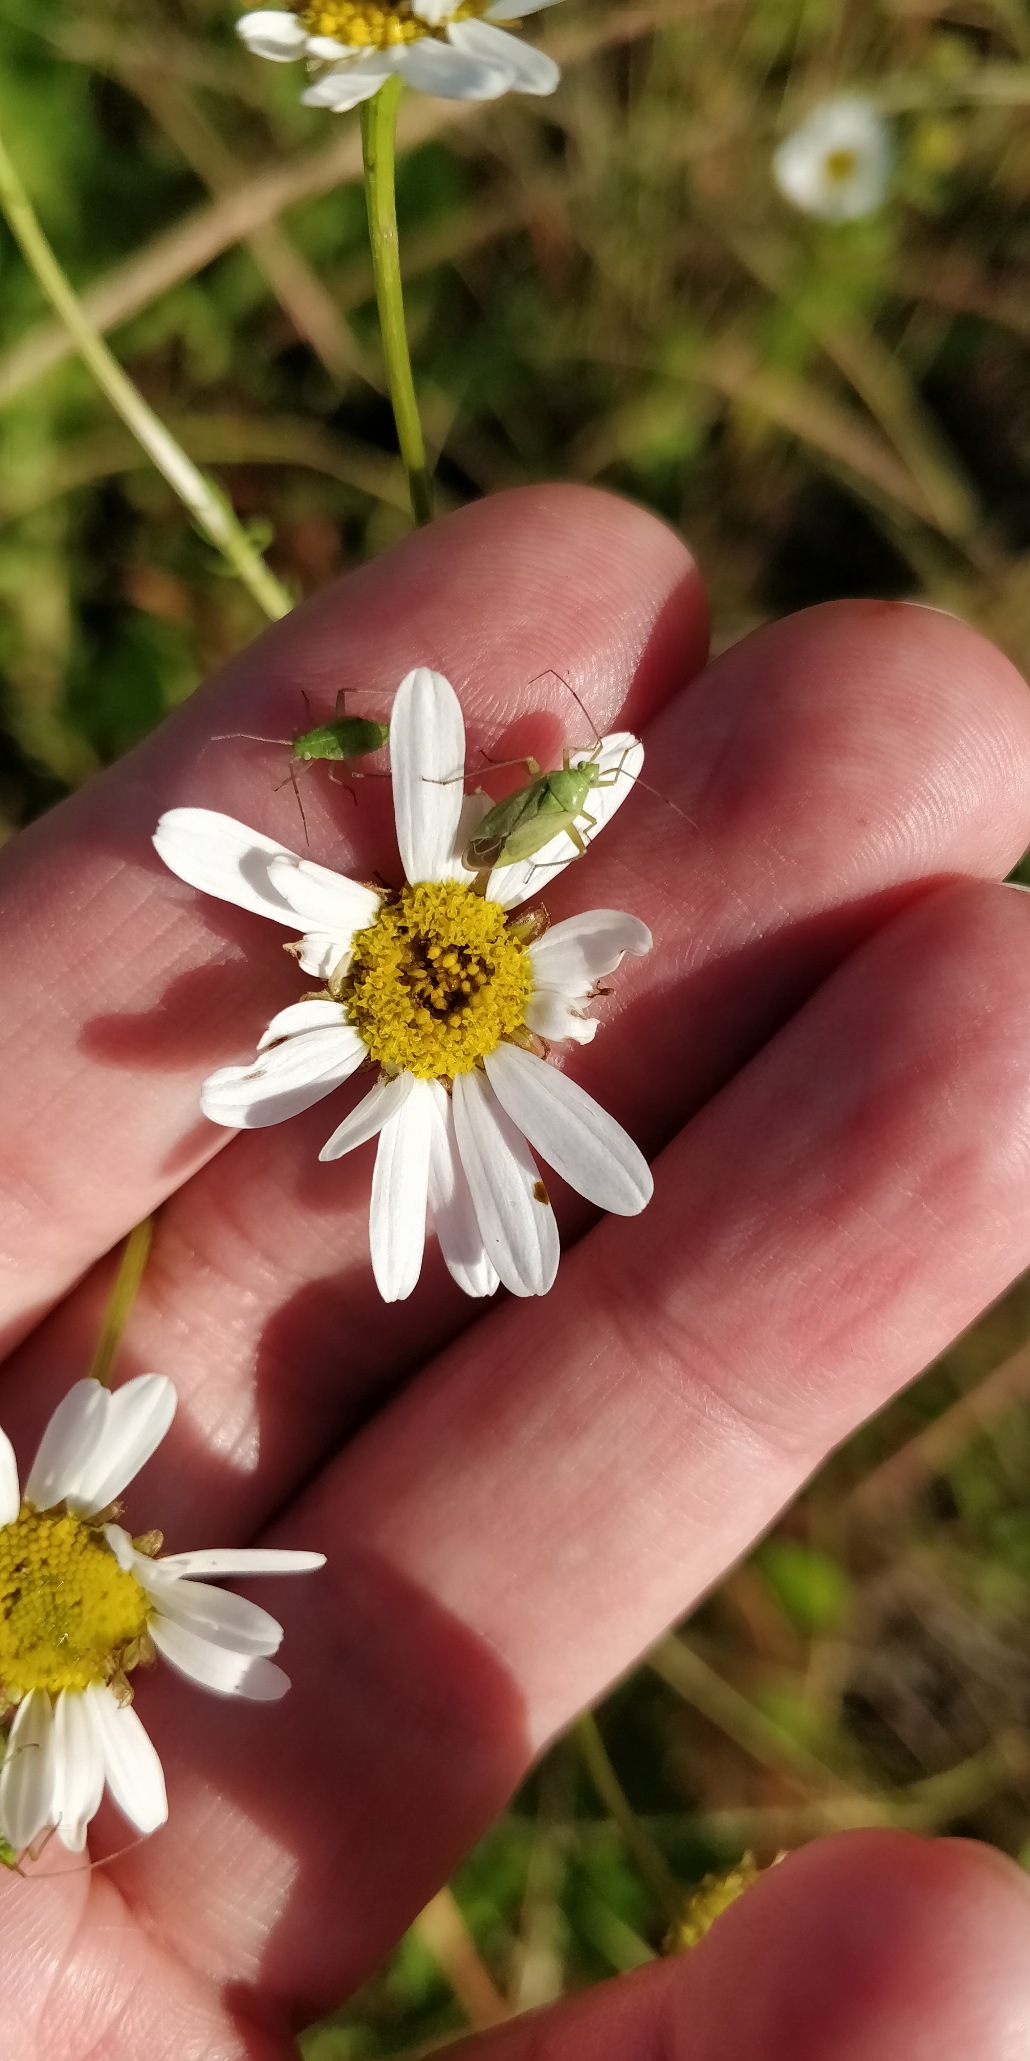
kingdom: Plantae
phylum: Tracheophyta
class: Magnoliopsida
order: Asterales
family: Asteraceae
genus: Leucanthemum
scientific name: Leucanthemum vulgare
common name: Hvid okseøje
